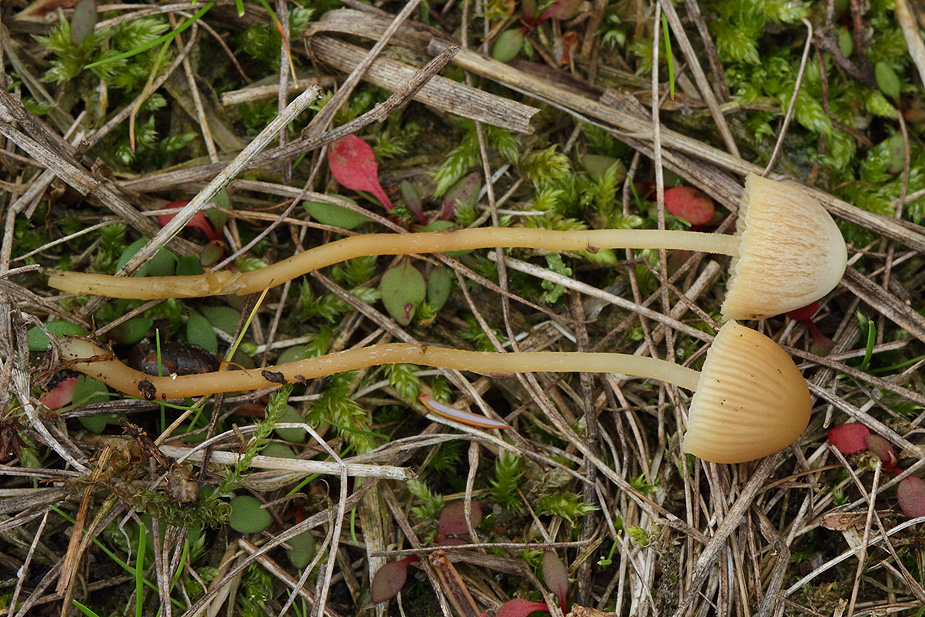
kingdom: Fungi
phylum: Basidiomycota
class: Agaricomycetes
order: Agaricales
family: Hymenogastraceae
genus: Galerina
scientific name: Galerina mniophila
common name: olivengul hjelmhat
